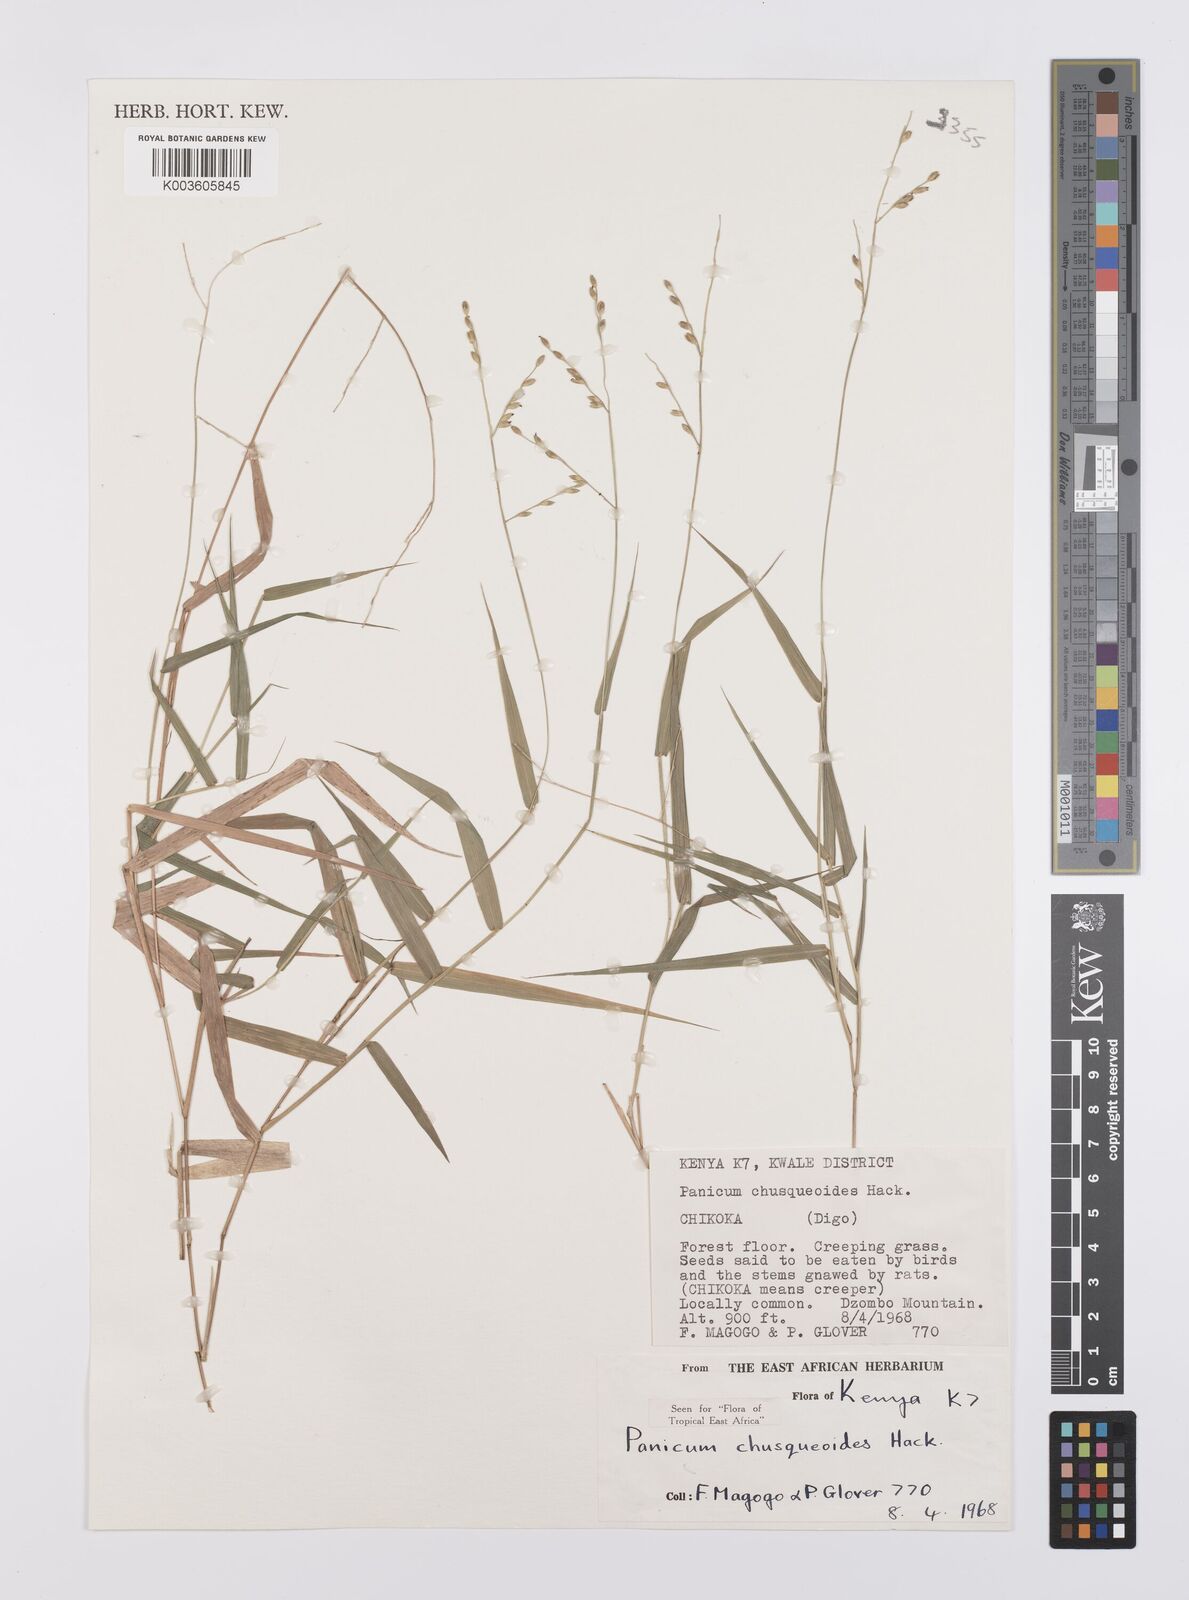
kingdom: Plantae
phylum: Tracheophyta
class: Liliopsida
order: Poales
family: Poaceae
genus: Urochloa
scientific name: Urochloa chusqueoides
